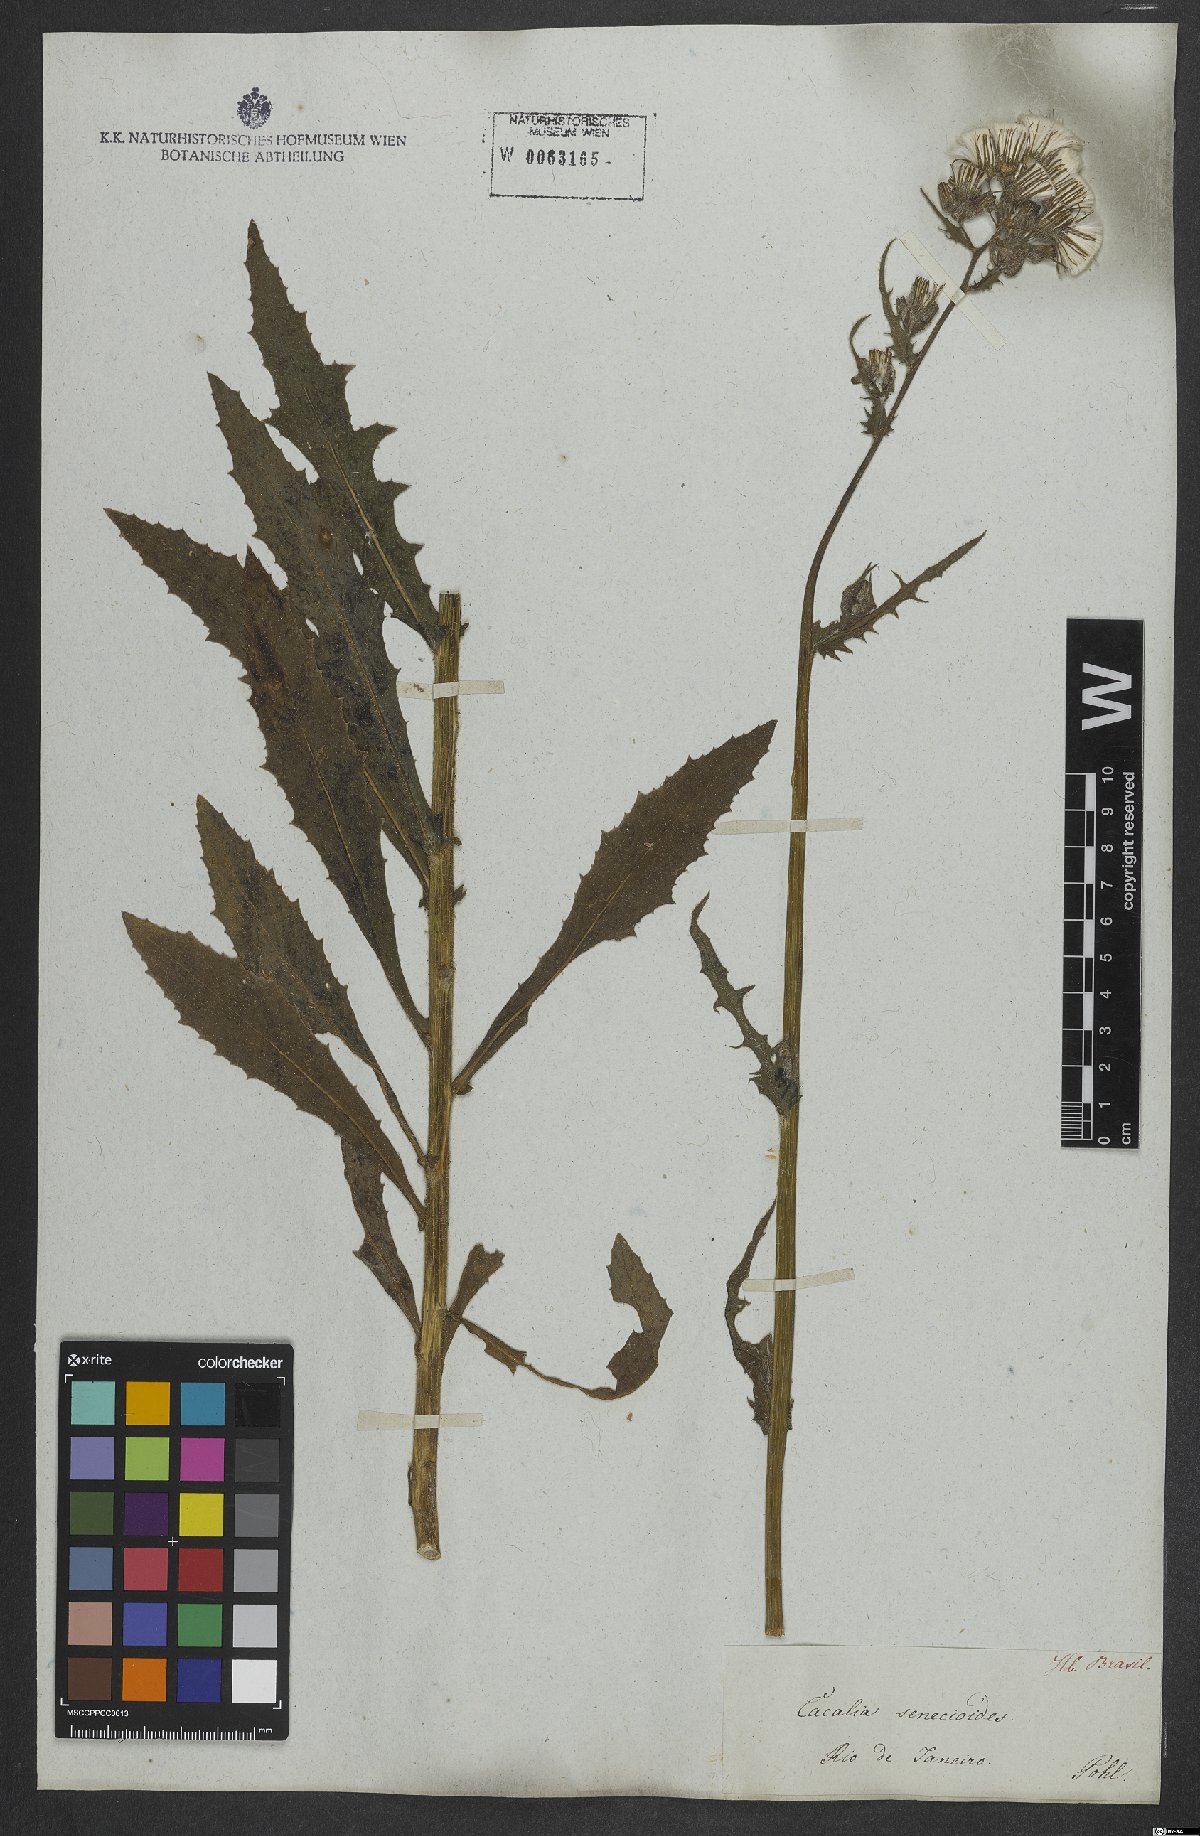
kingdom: Plantae
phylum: Tracheophyta
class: Magnoliopsida
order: Asterales
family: Asteraceae
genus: Erechtites
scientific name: Erechtites hieraciifolius
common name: American burnweed
